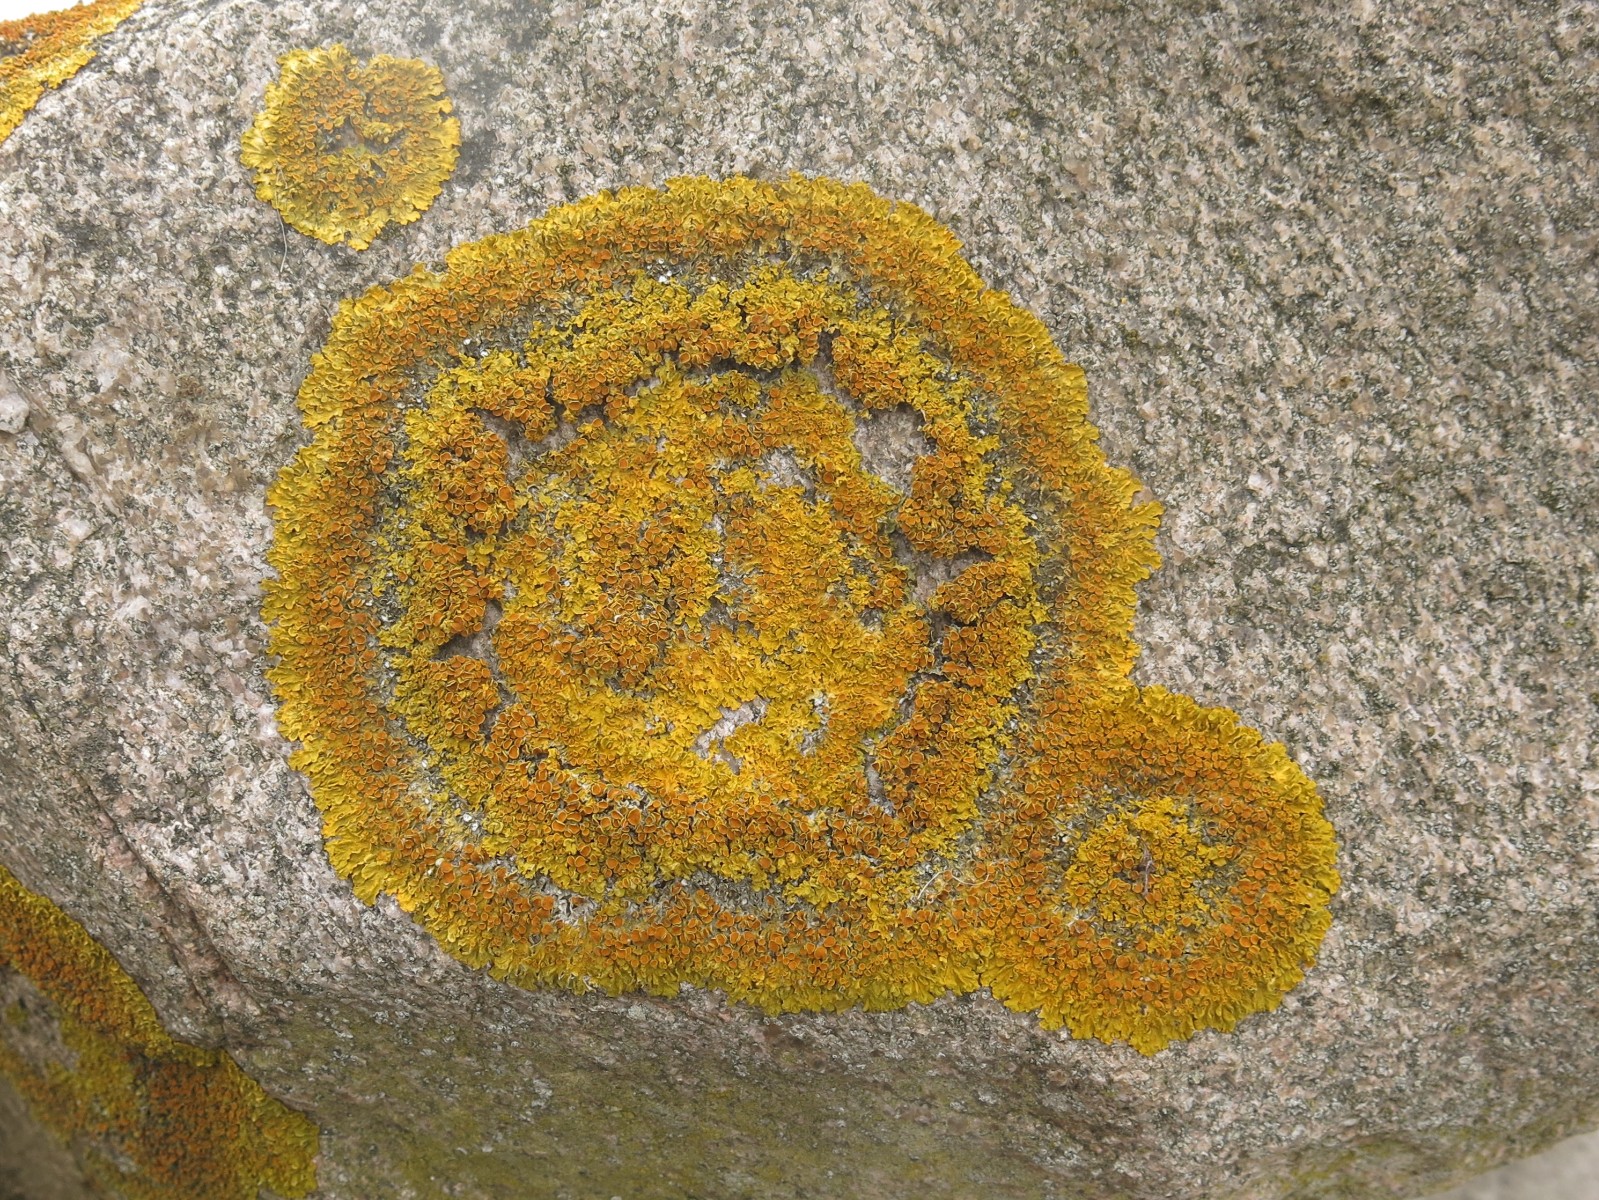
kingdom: Fungi
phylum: Ascomycota
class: Lecanoromycetes
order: Teloschistales
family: Teloschistaceae
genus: Xanthoria
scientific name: Xanthoria parietina
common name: almindelig væggelav
